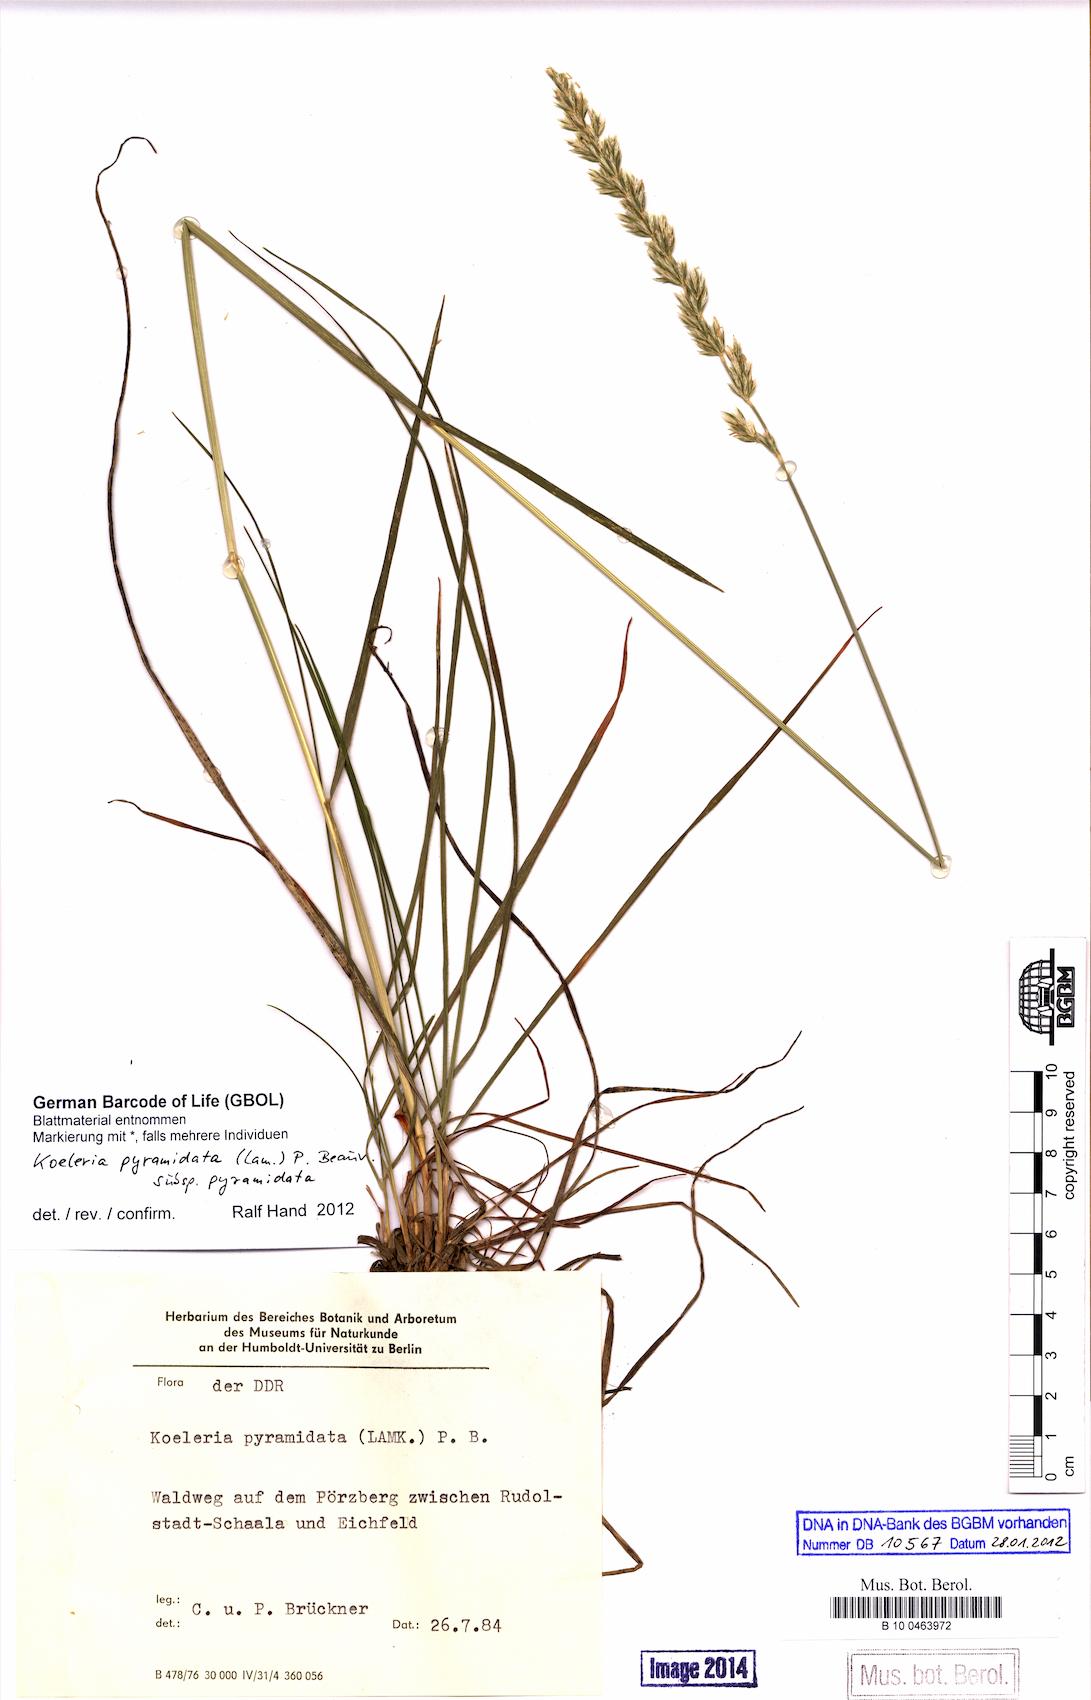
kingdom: Plantae
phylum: Tracheophyta
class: Liliopsida
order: Poales
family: Poaceae
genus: Koeleria
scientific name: Koeleria pyramidata
